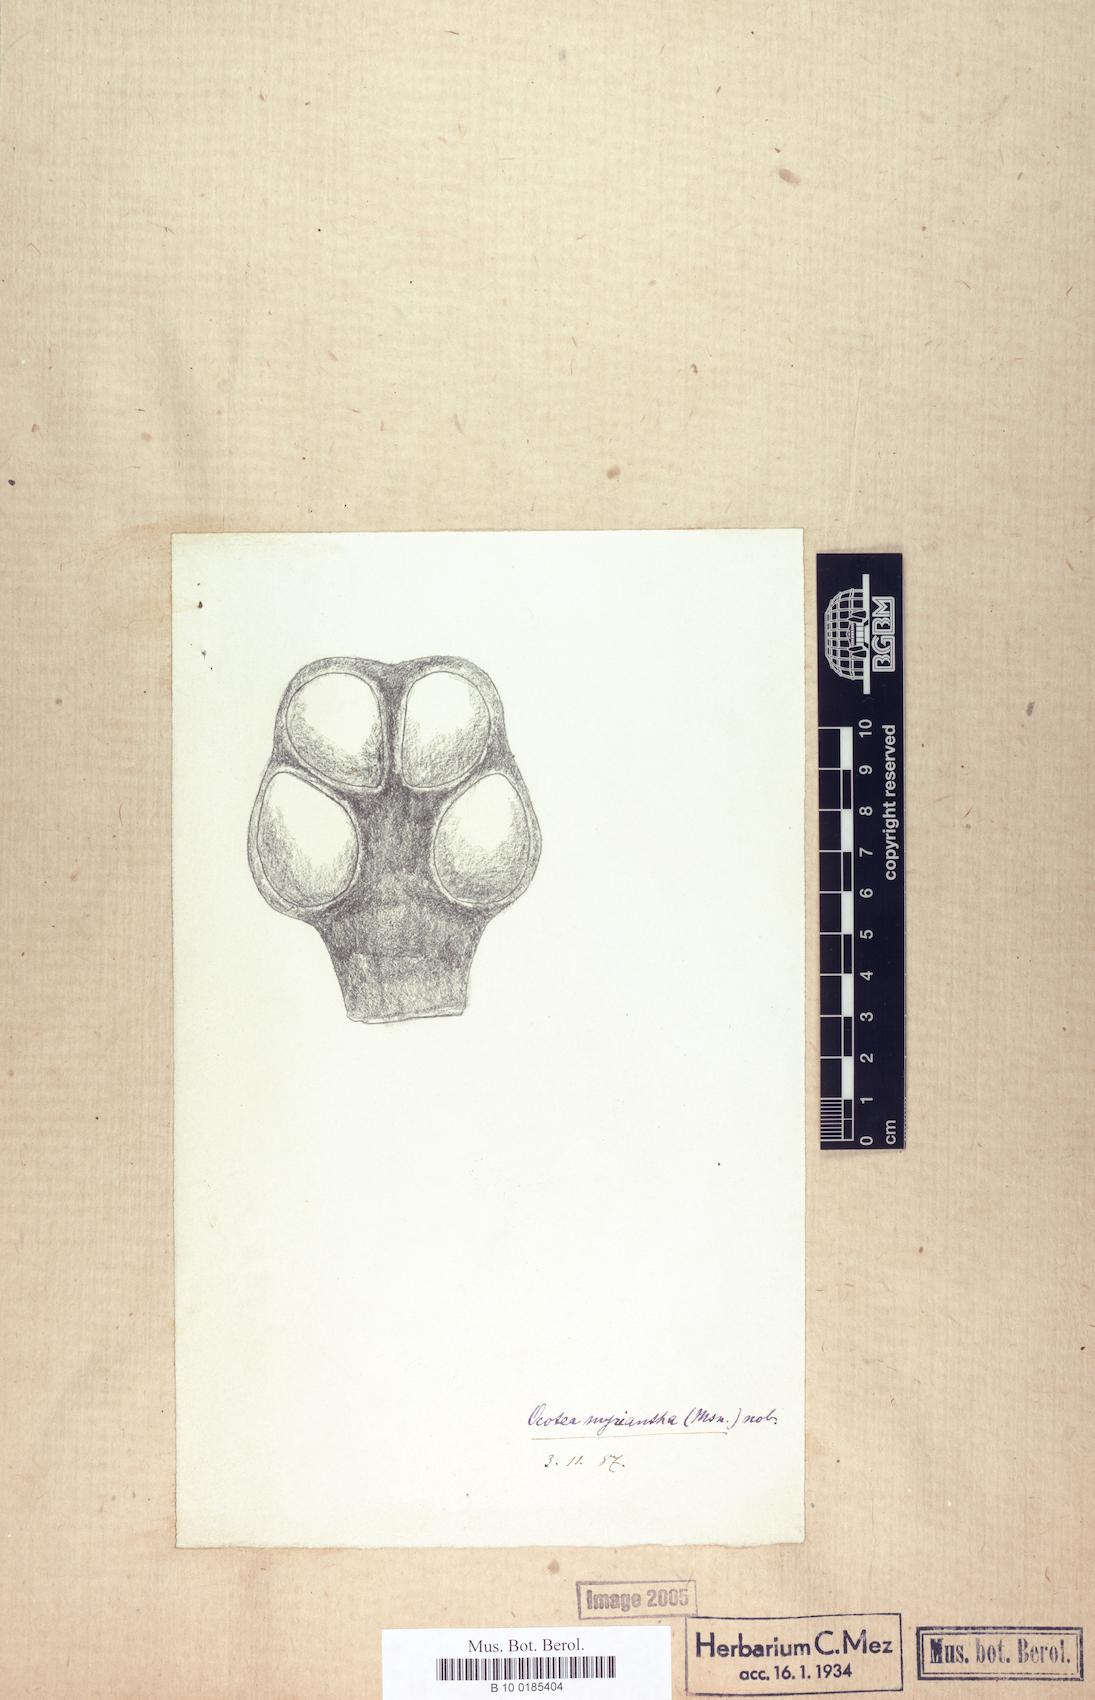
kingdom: Plantae
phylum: Tracheophyta
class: Magnoliopsida
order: Laurales
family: Lauraceae
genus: Ocotea
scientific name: Ocotea myriantha
